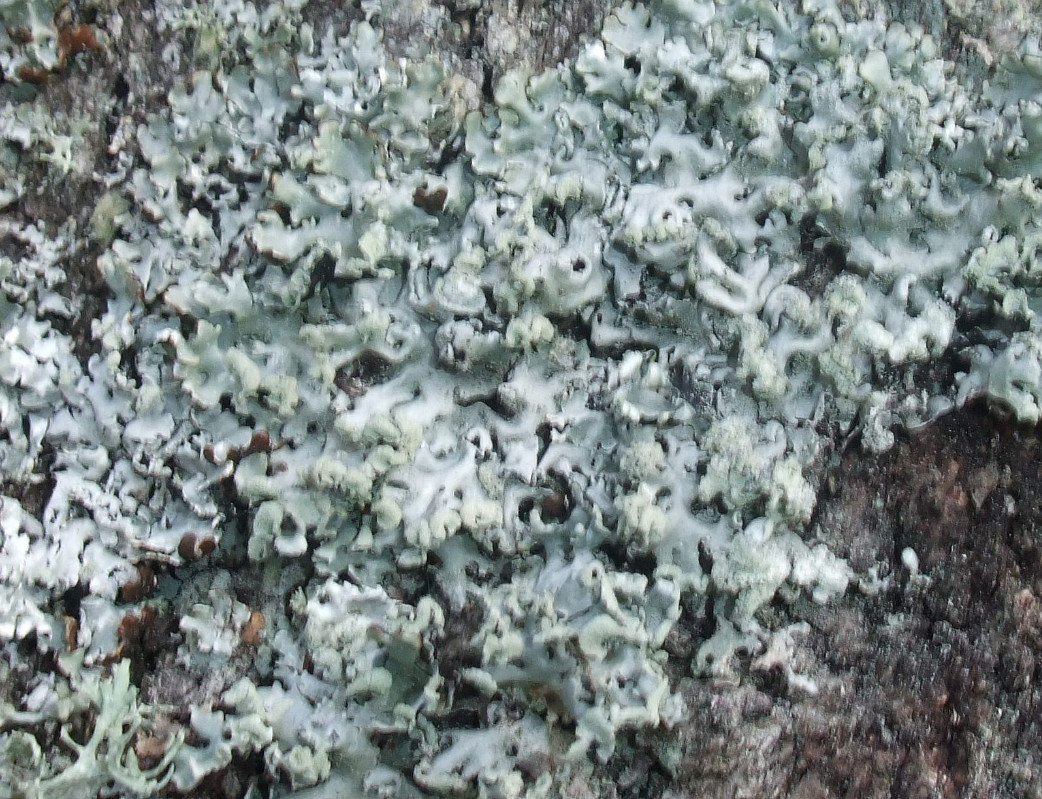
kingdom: Fungi
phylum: Ascomycota
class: Lecanoromycetes
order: Lecanorales
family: Parmeliaceae
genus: Hypogymnia
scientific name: Hypogymnia physodes
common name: almindelig kvistlav
